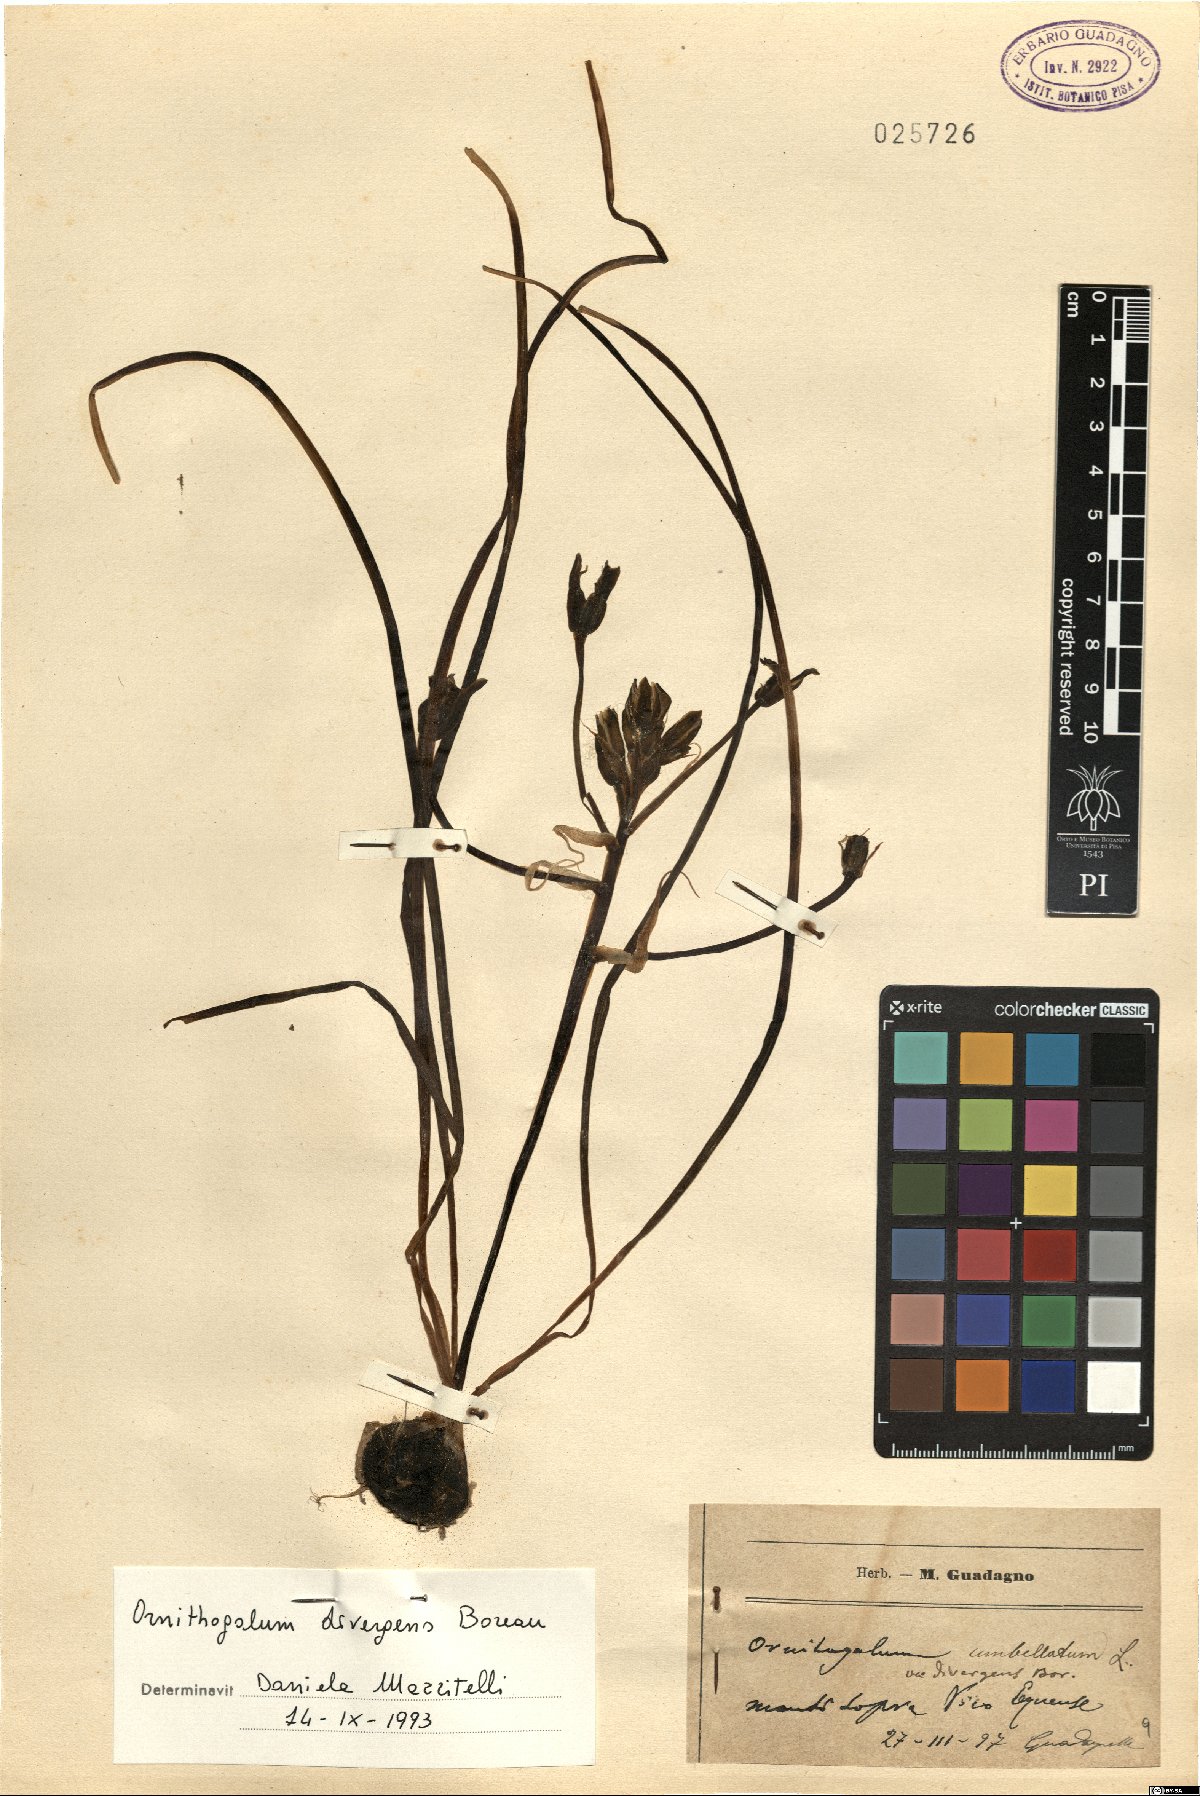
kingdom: Plantae
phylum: Tracheophyta
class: Liliopsida
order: Asparagales
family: Asparagaceae
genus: Ornithogalum
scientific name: Ornithogalum divergens
